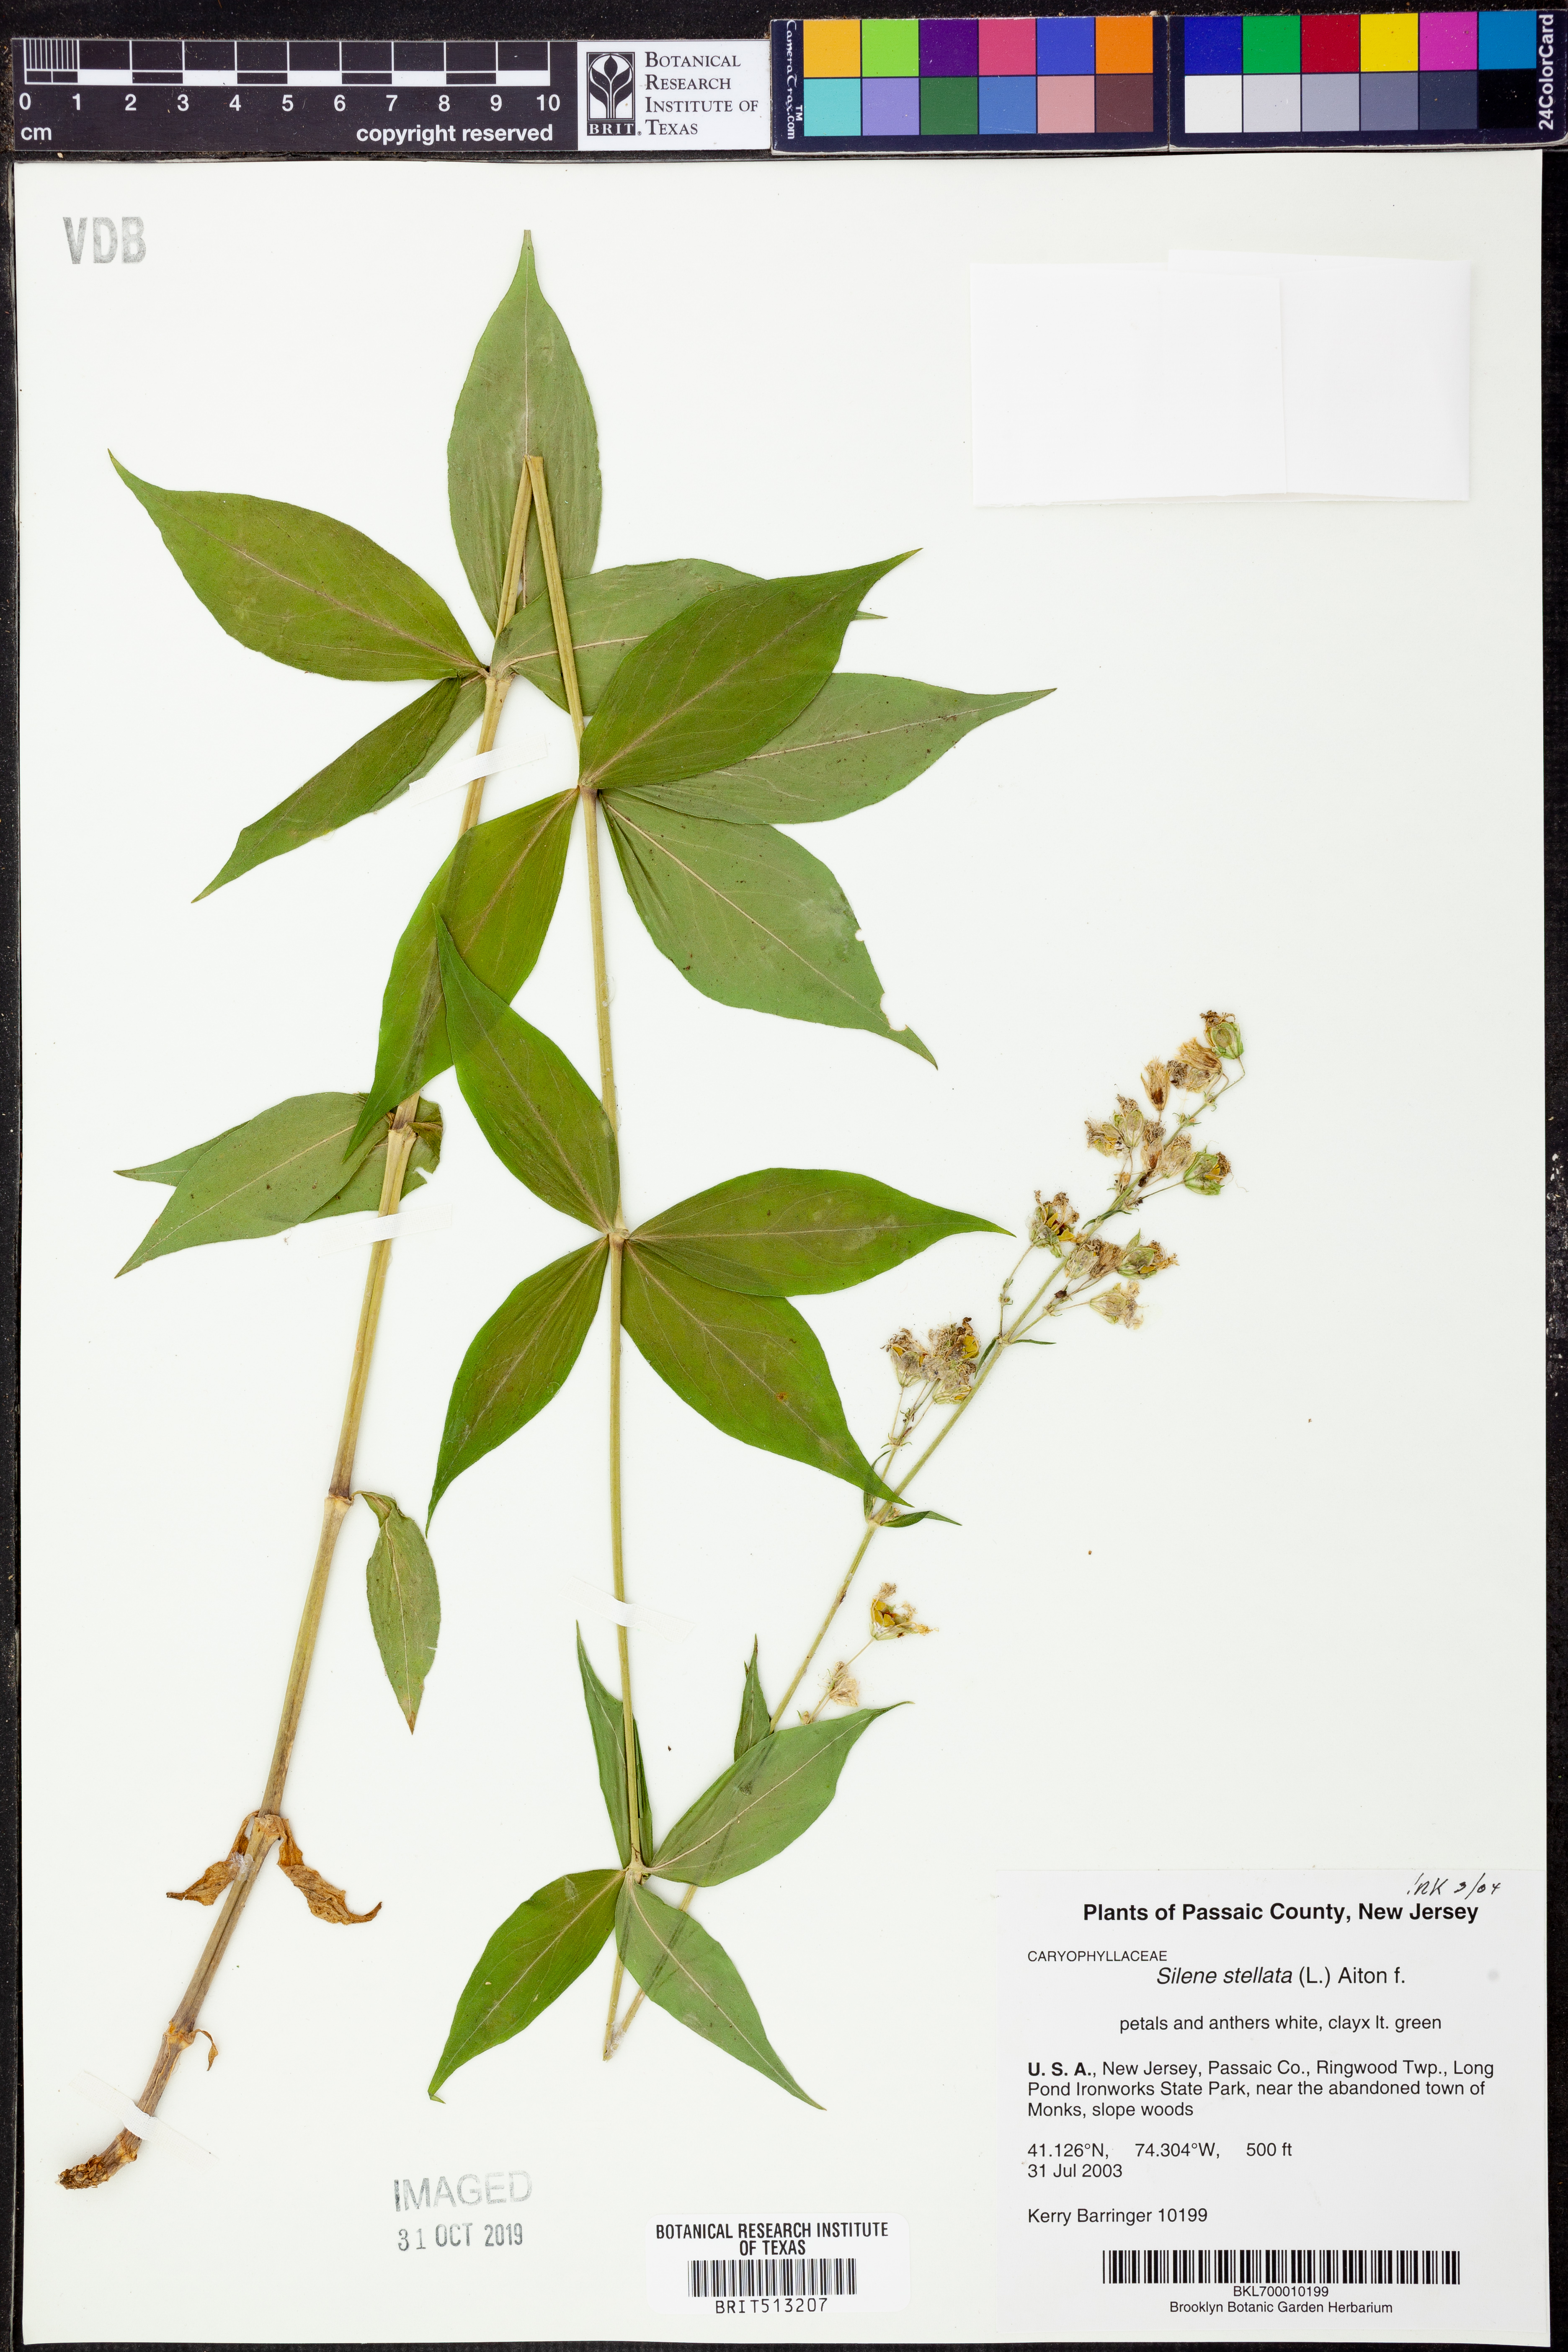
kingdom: Plantae
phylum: Tracheophyta
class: Magnoliopsida
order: Caryophyllales
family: Caryophyllaceae
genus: Silene
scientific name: Silene stellata
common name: Starry campion
